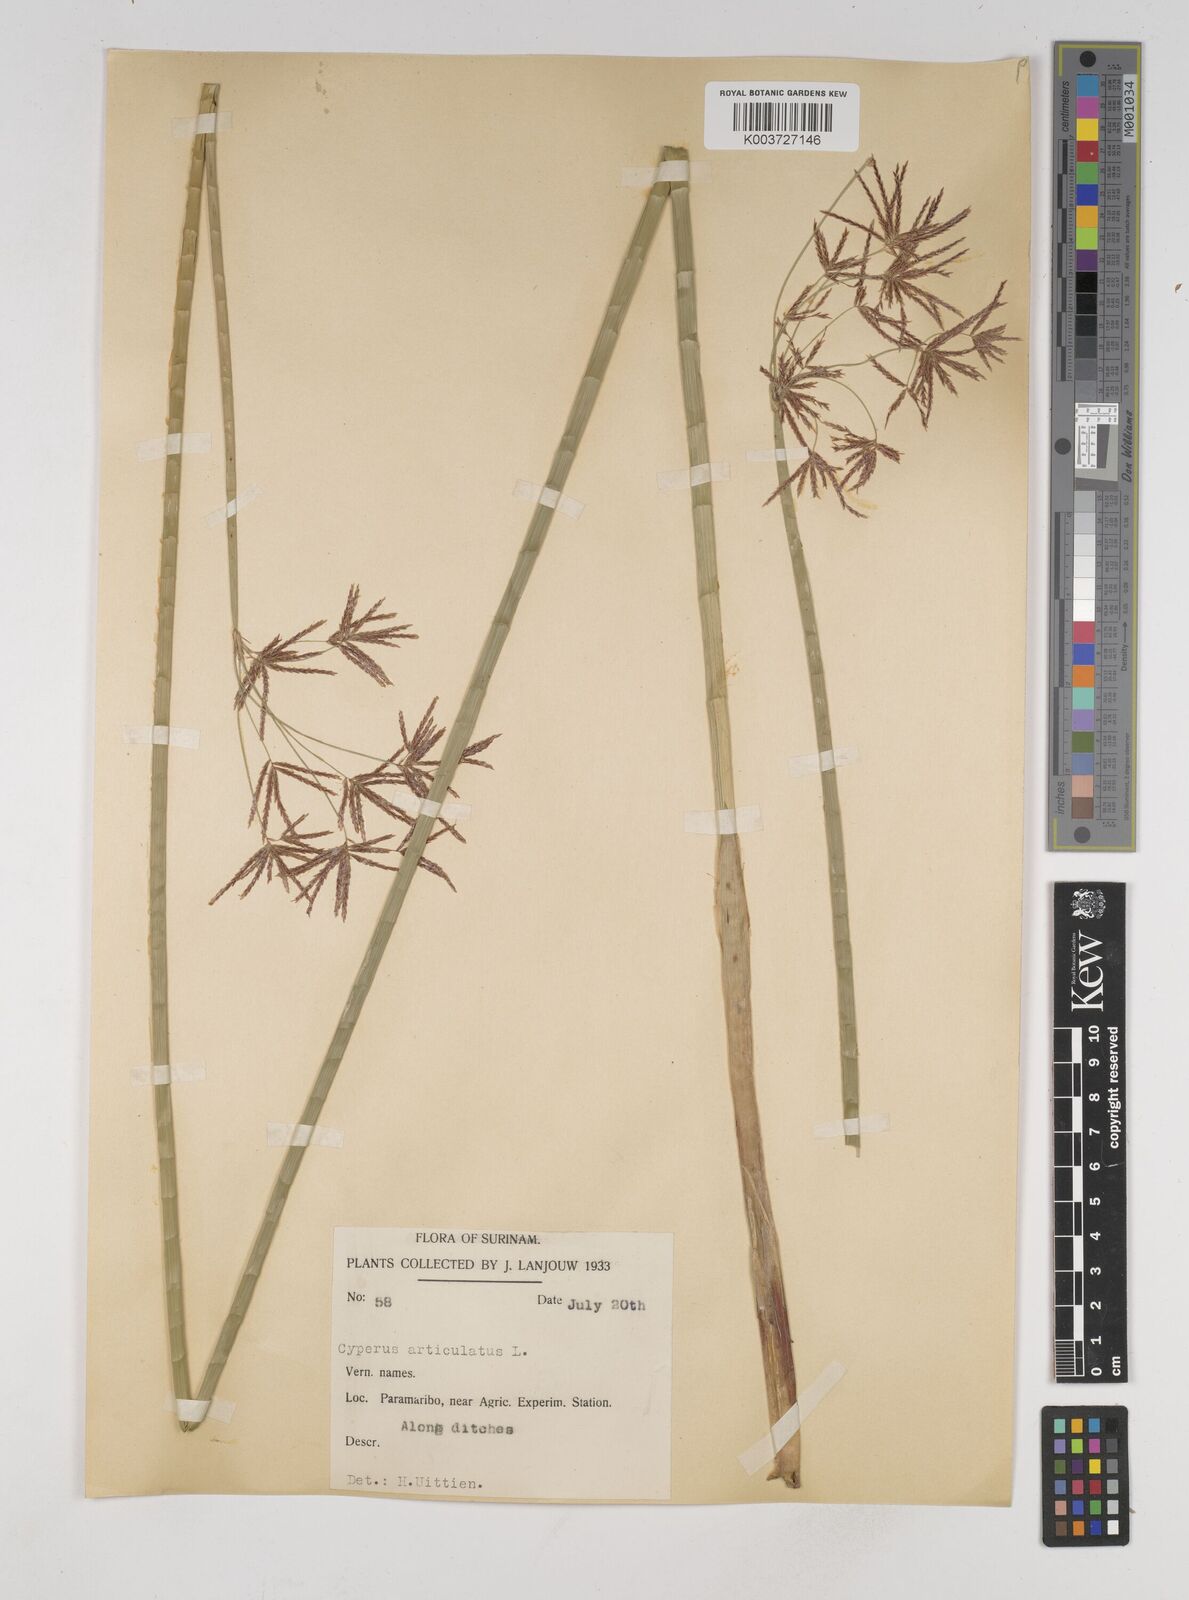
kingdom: Plantae
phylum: Tracheophyta
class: Liliopsida
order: Poales
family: Cyperaceae
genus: Cyperus
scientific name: Cyperus articulatus
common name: Jointed flatsedge
